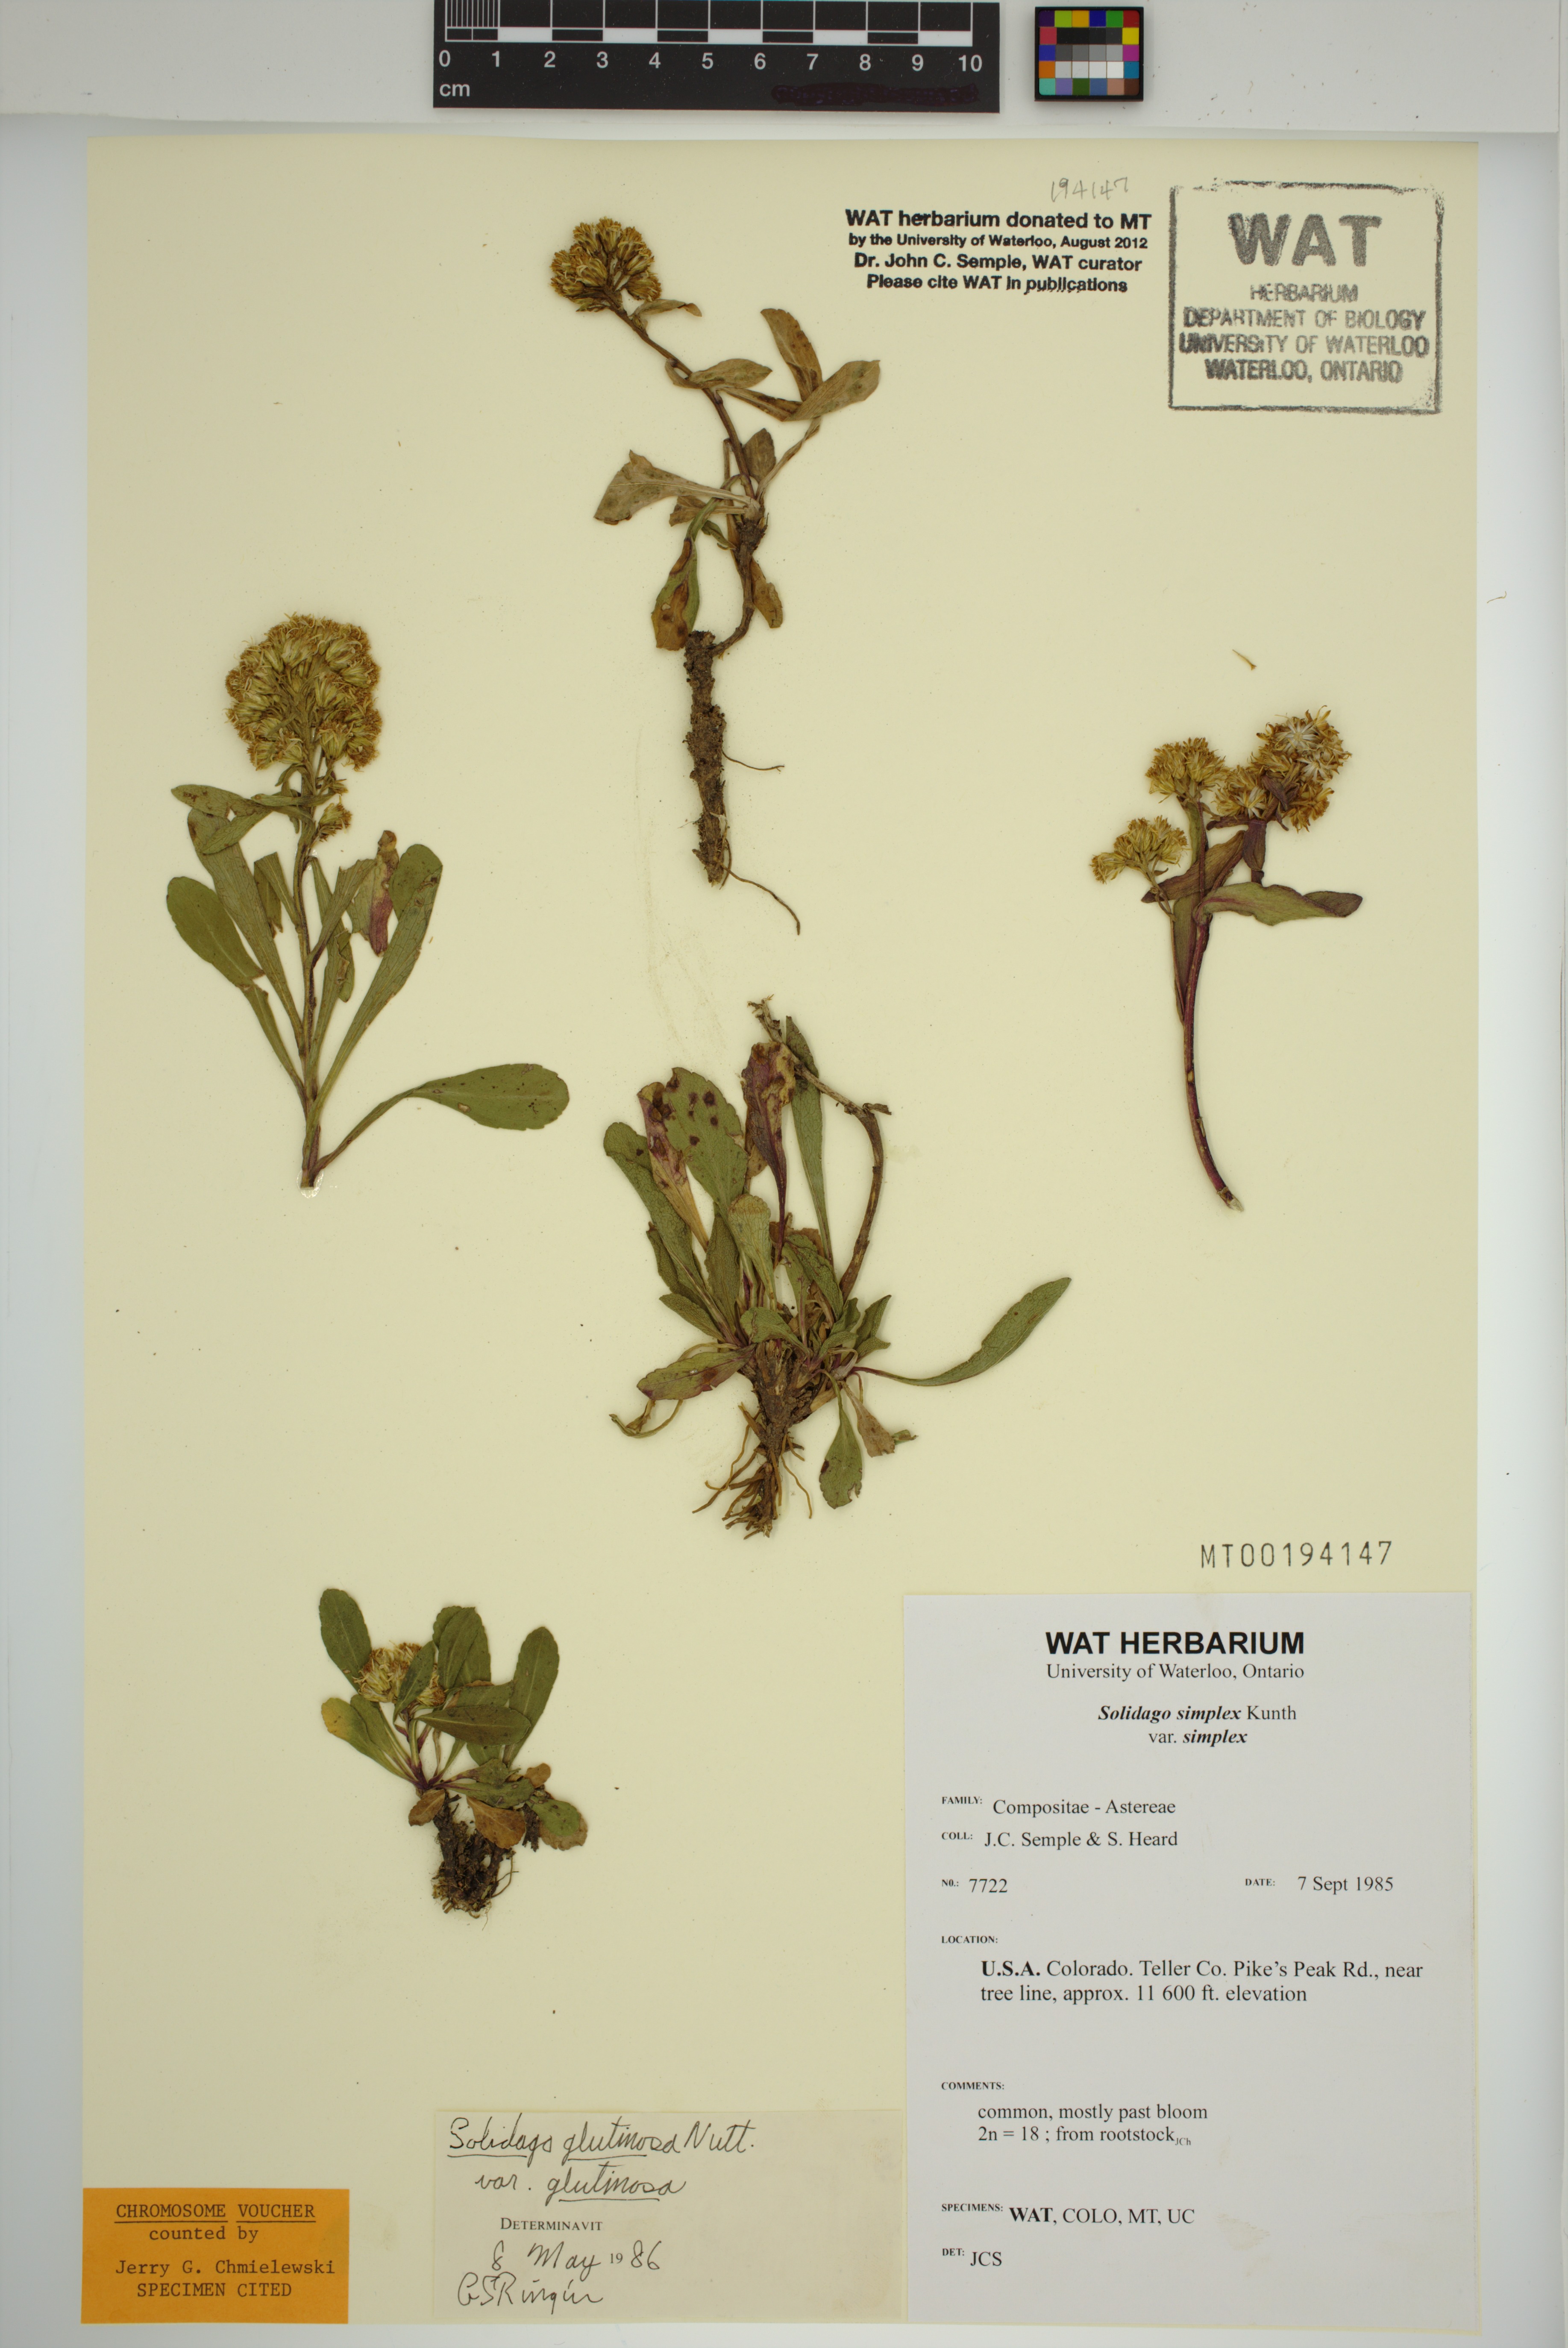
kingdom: Plantae
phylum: Tracheophyta
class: Magnoliopsida
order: Asterales
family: Asteraceae
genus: Solidago
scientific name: Solidago glutinosa
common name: Decumbent goldenrod
